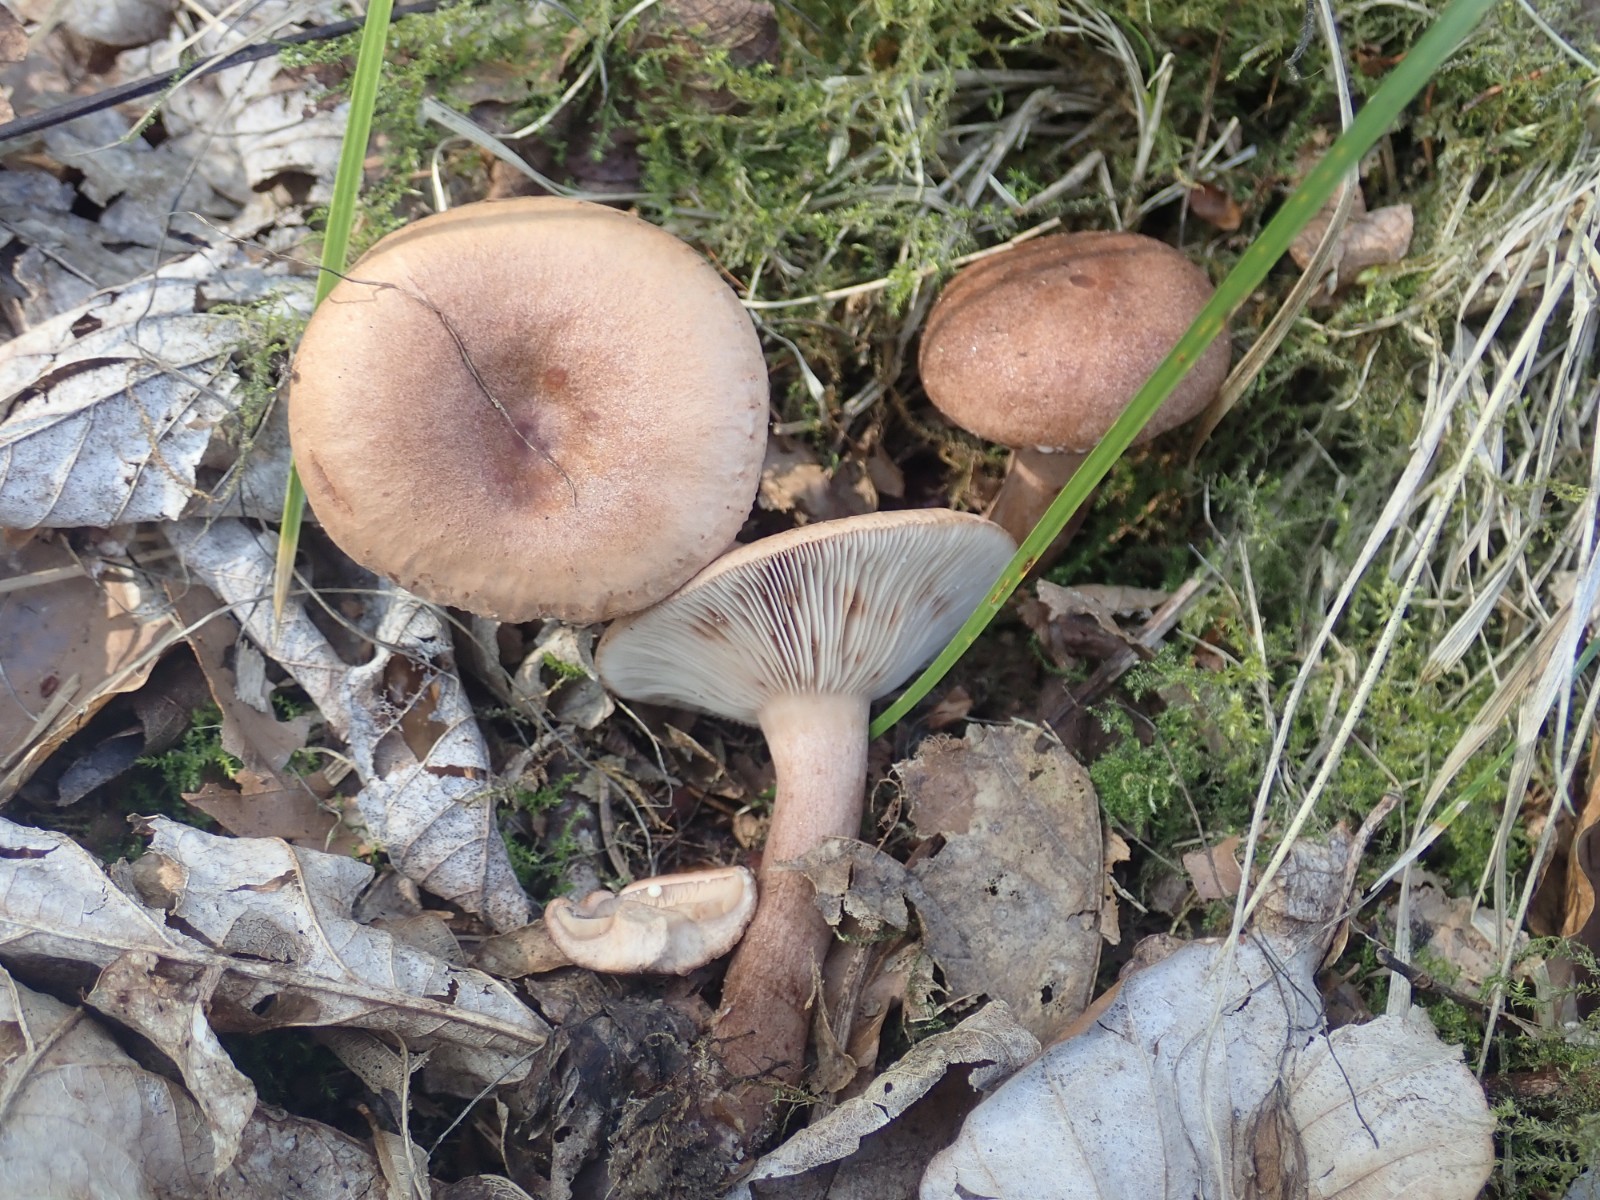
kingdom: Fungi
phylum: Basidiomycota
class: Agaricomycetes
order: Russulales
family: Russulaceae
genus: Lactarius
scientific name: Lactarius quietus
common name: ege-mælkehat
